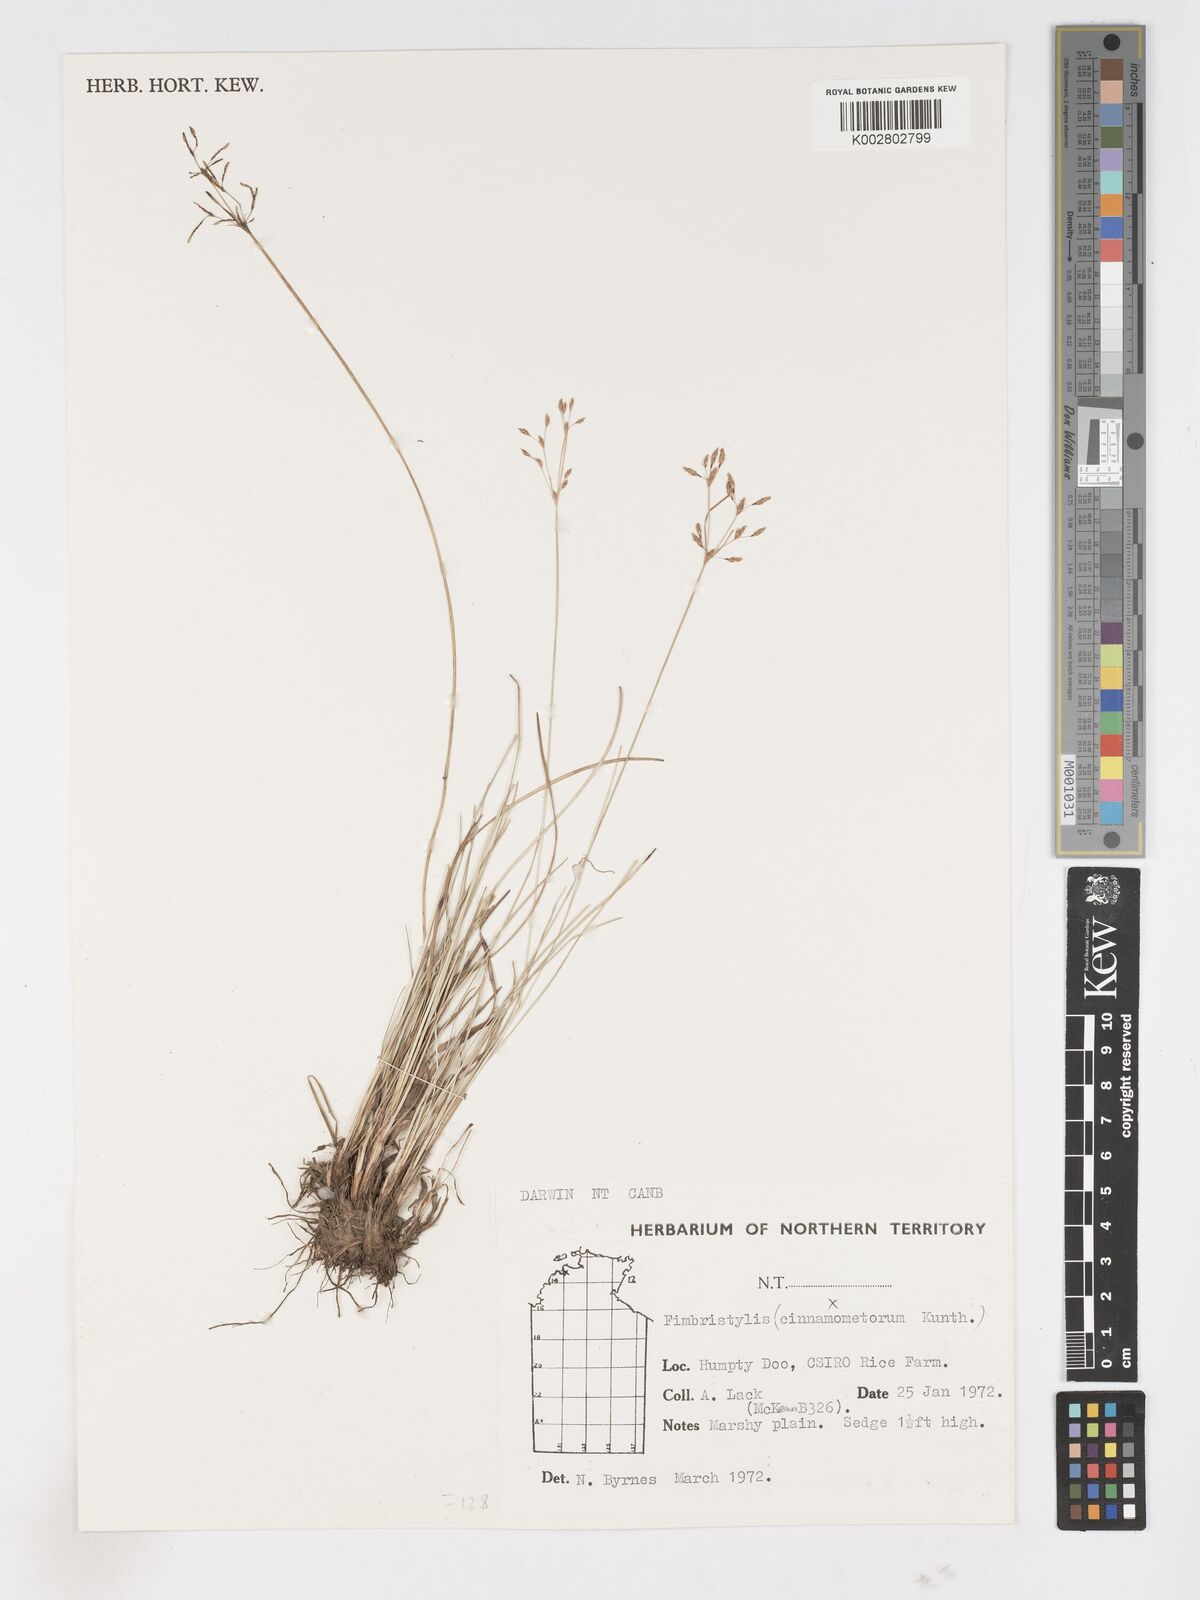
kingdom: Plantae
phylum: Tracheophyta
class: Liliopsida
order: Poales
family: Cyperaceae
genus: Fimbristylis
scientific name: Fimbristylis cinnamometorum
